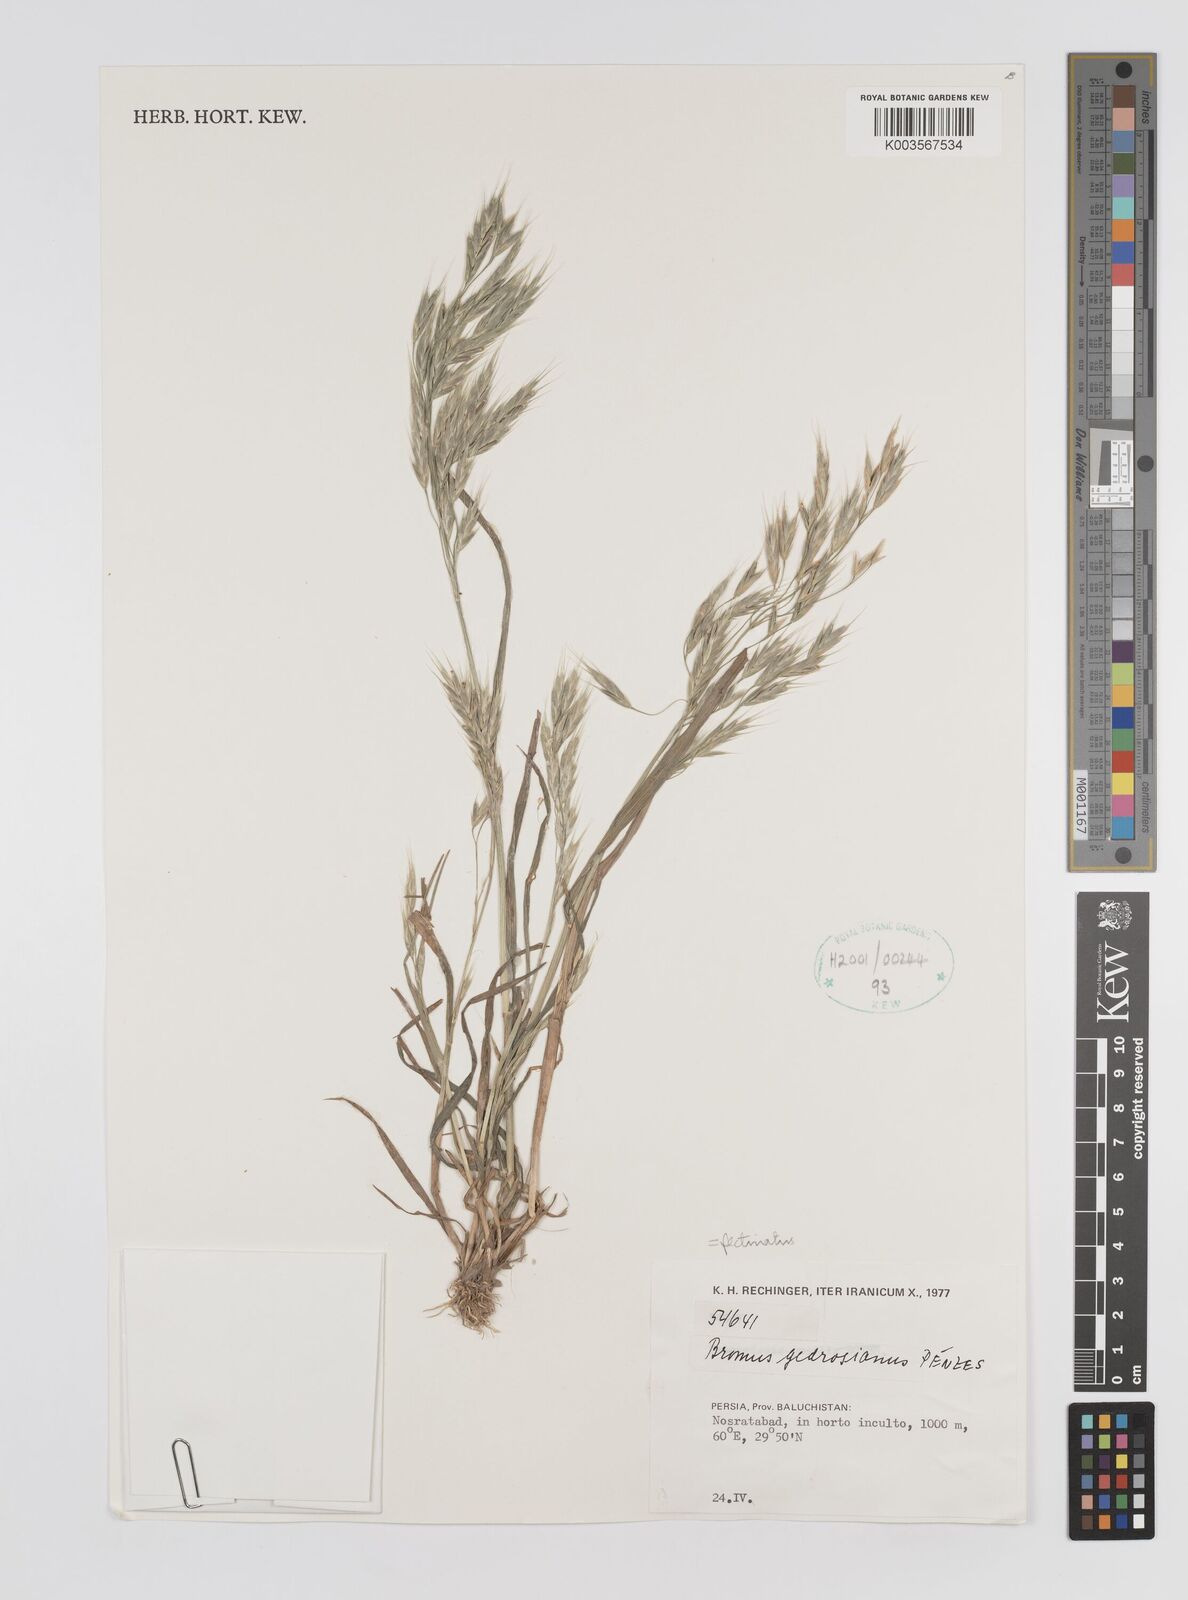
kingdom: Plantae
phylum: Tracheophyta
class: Liliopsida
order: Poales
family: Poaceae
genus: Bromus
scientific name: Bromus pectinatus
